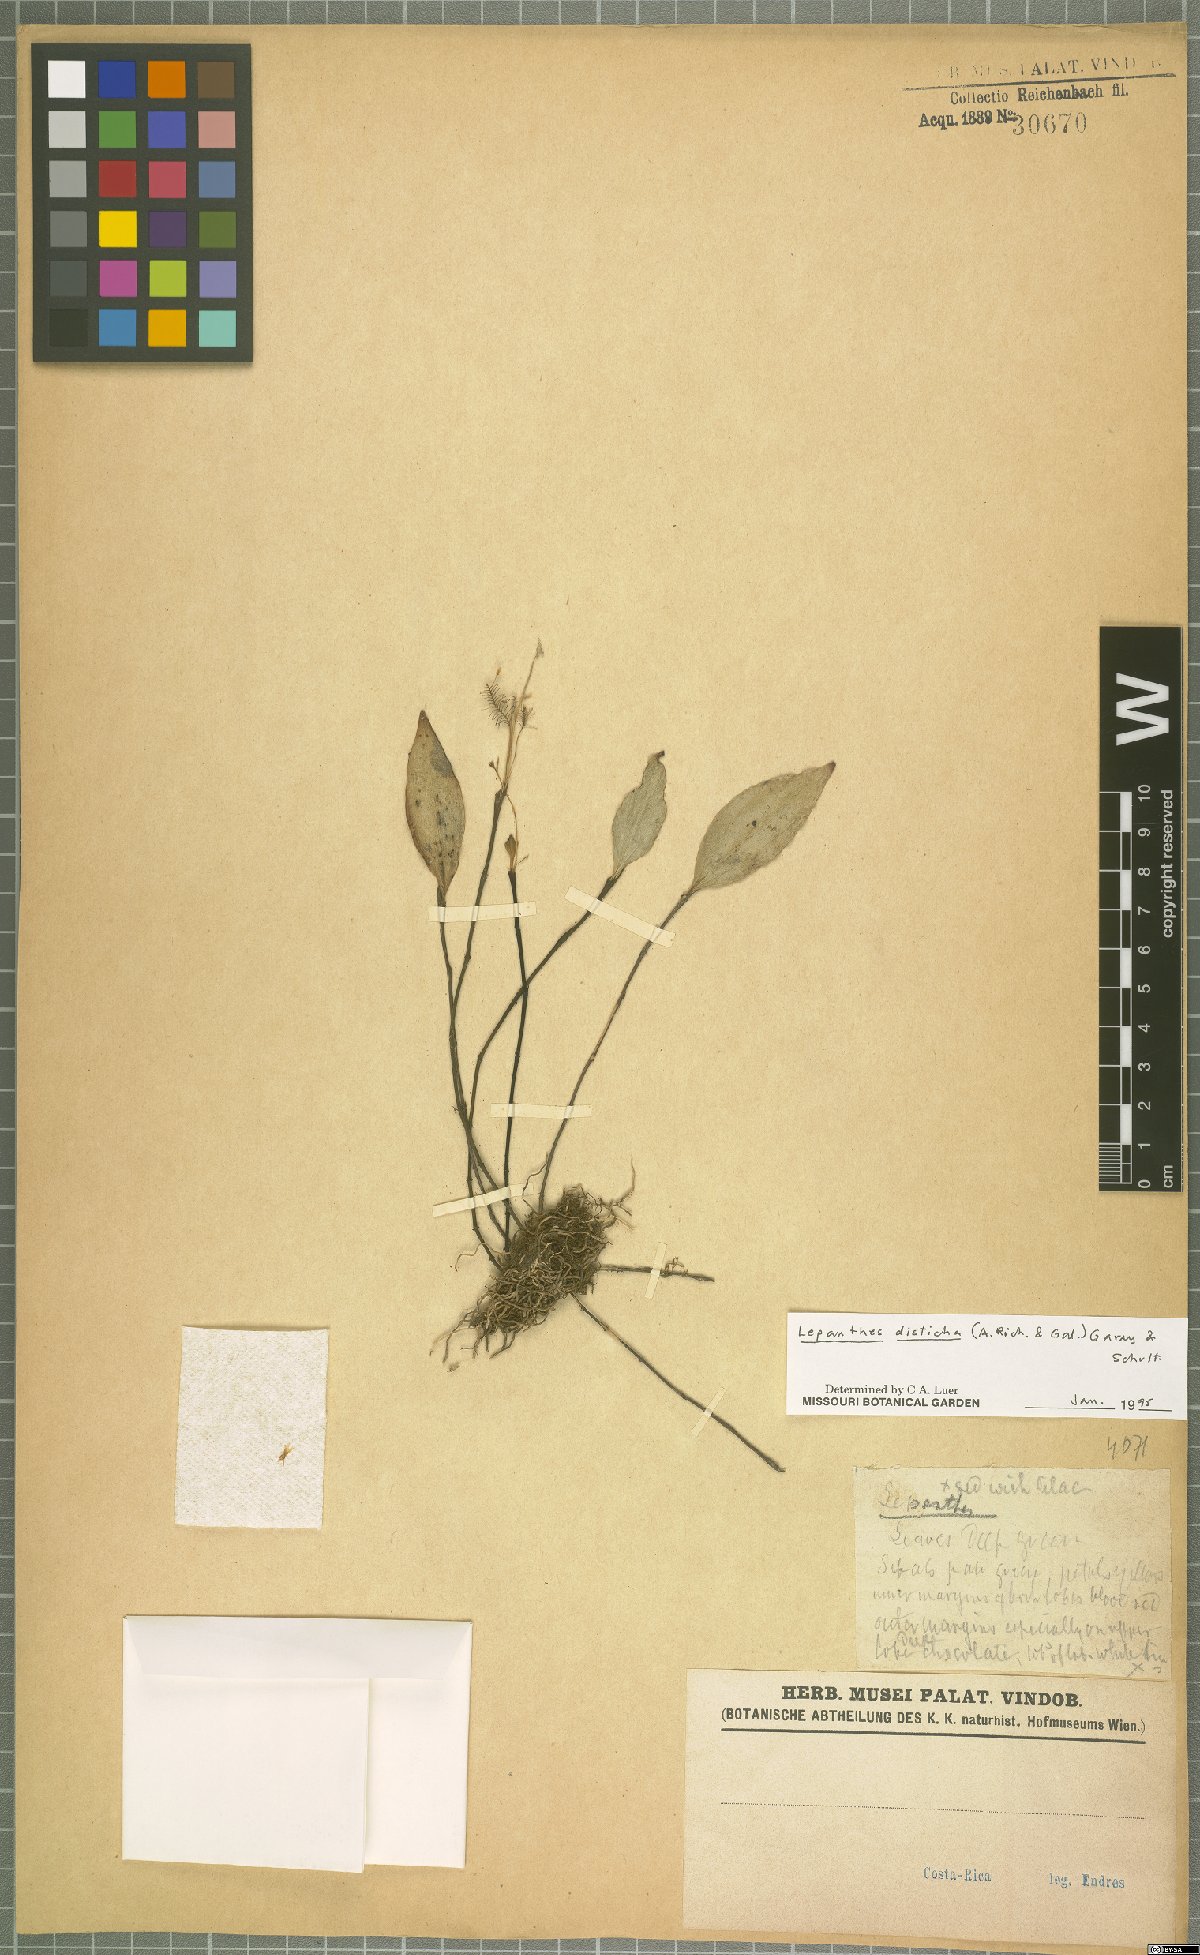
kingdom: Plantae
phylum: Tracheophyta
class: Liliopsida
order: Asparagales
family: Orchidaceae
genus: Lepanthes
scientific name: Lepanthes disticha
